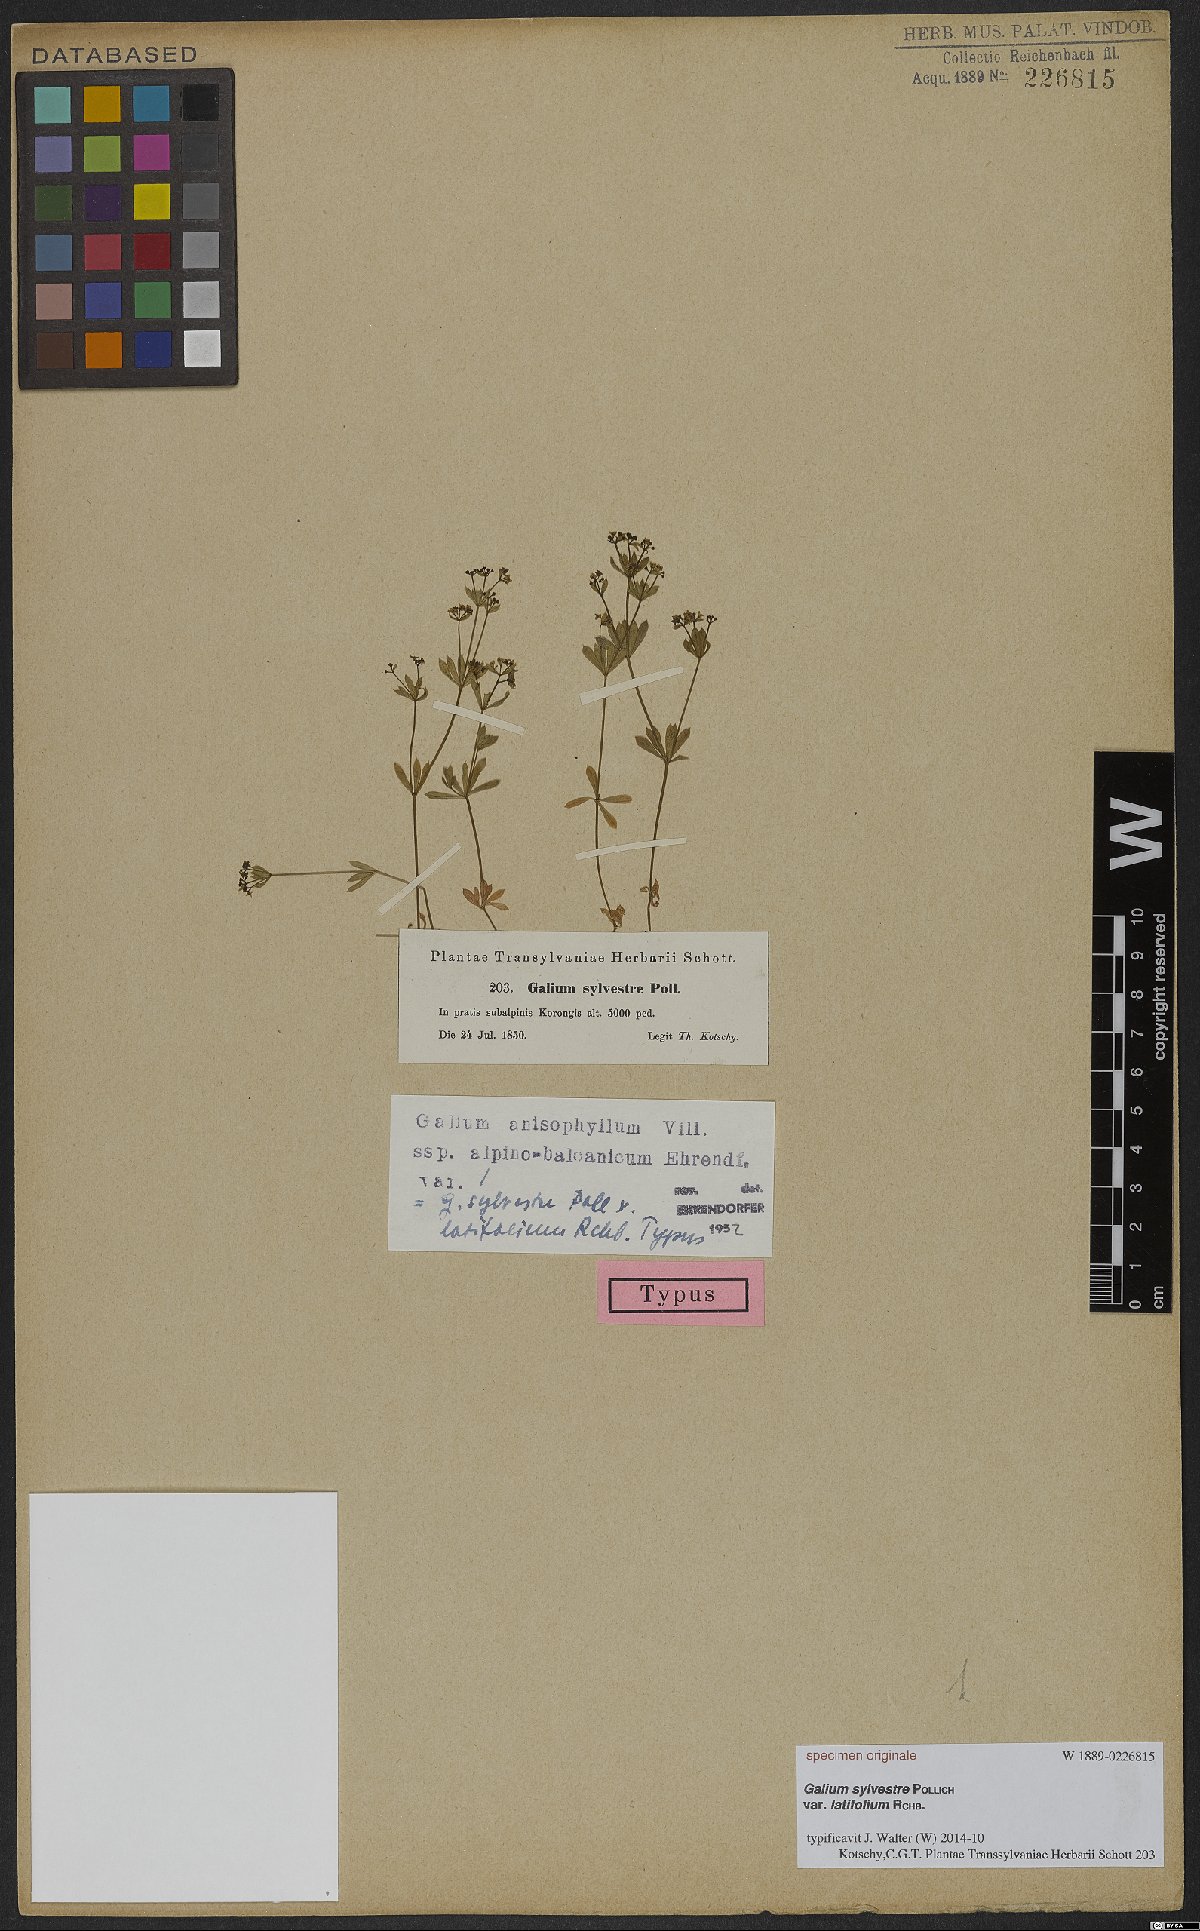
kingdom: Plantae
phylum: Tracheophyta
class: Magnoliopsida
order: Gentianales
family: Rubiaceae
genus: Galium
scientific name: Galium anisophyllon
